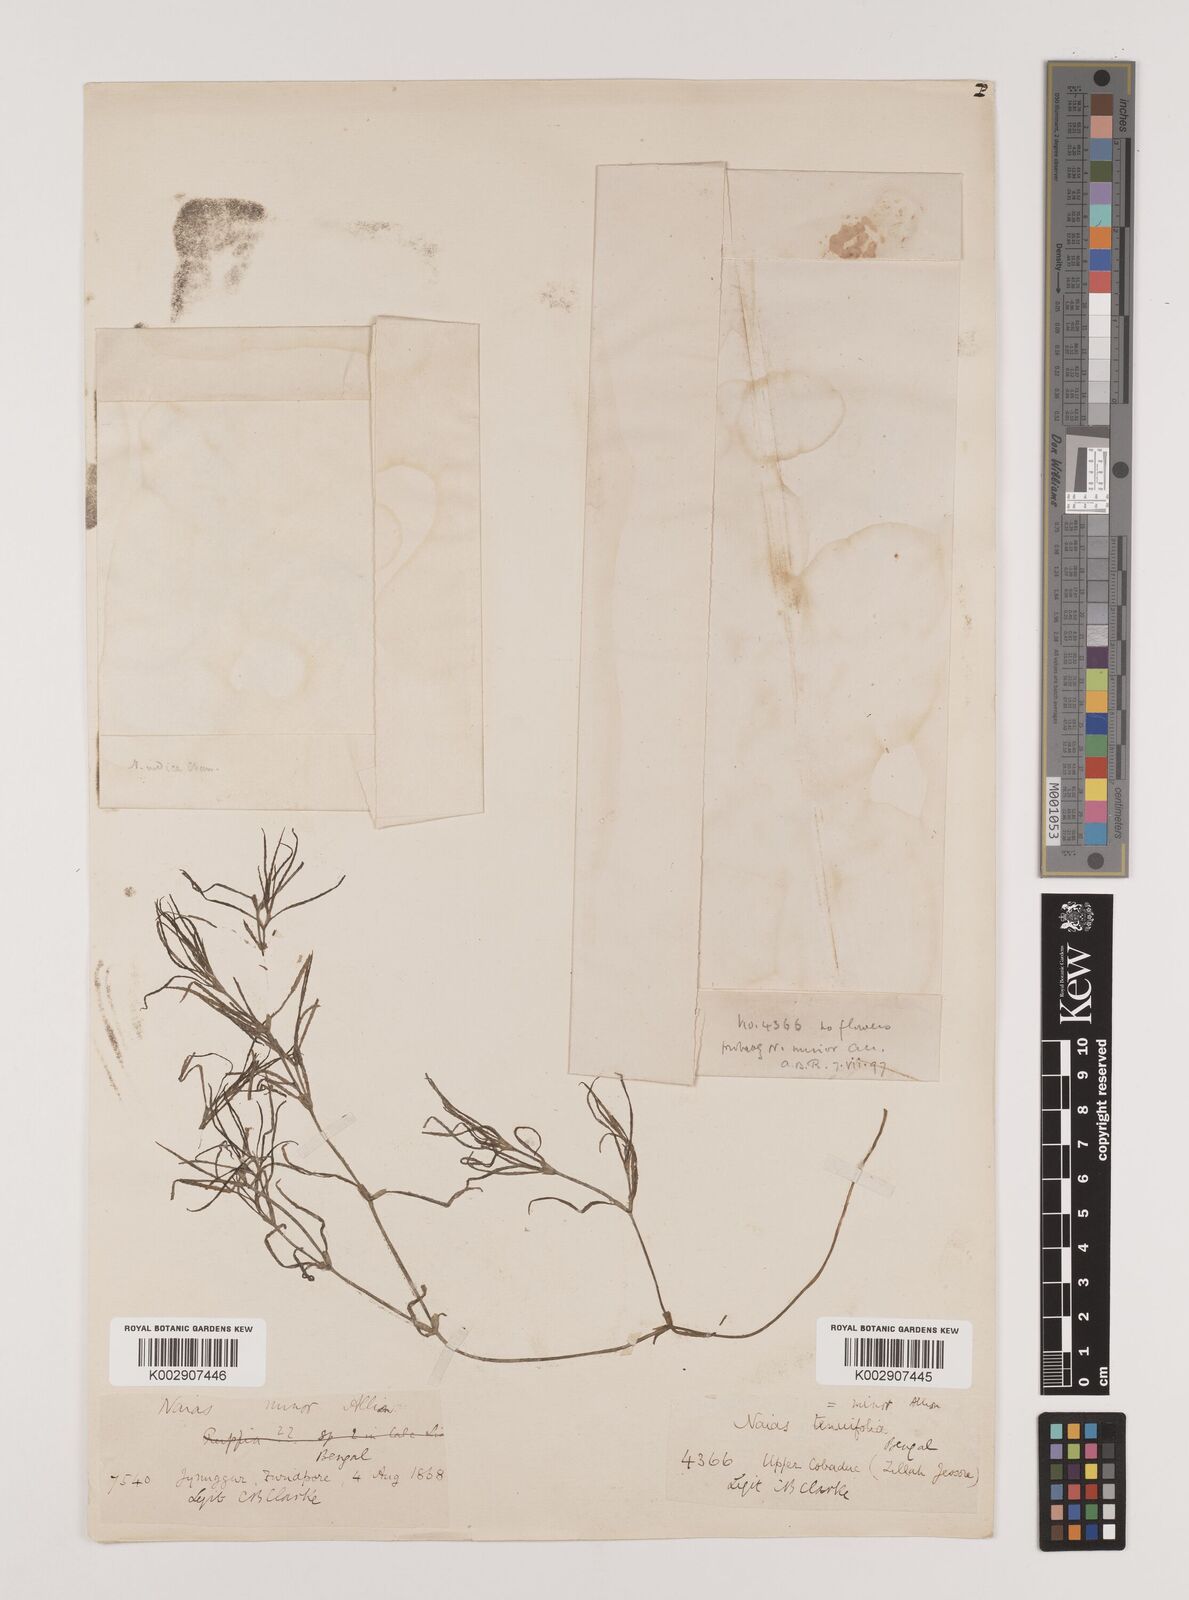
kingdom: Plantae
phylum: Tracheophyta
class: Liliopsida
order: Alismatales
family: Hydrocharitaceae
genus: Najas
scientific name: Najas indica
